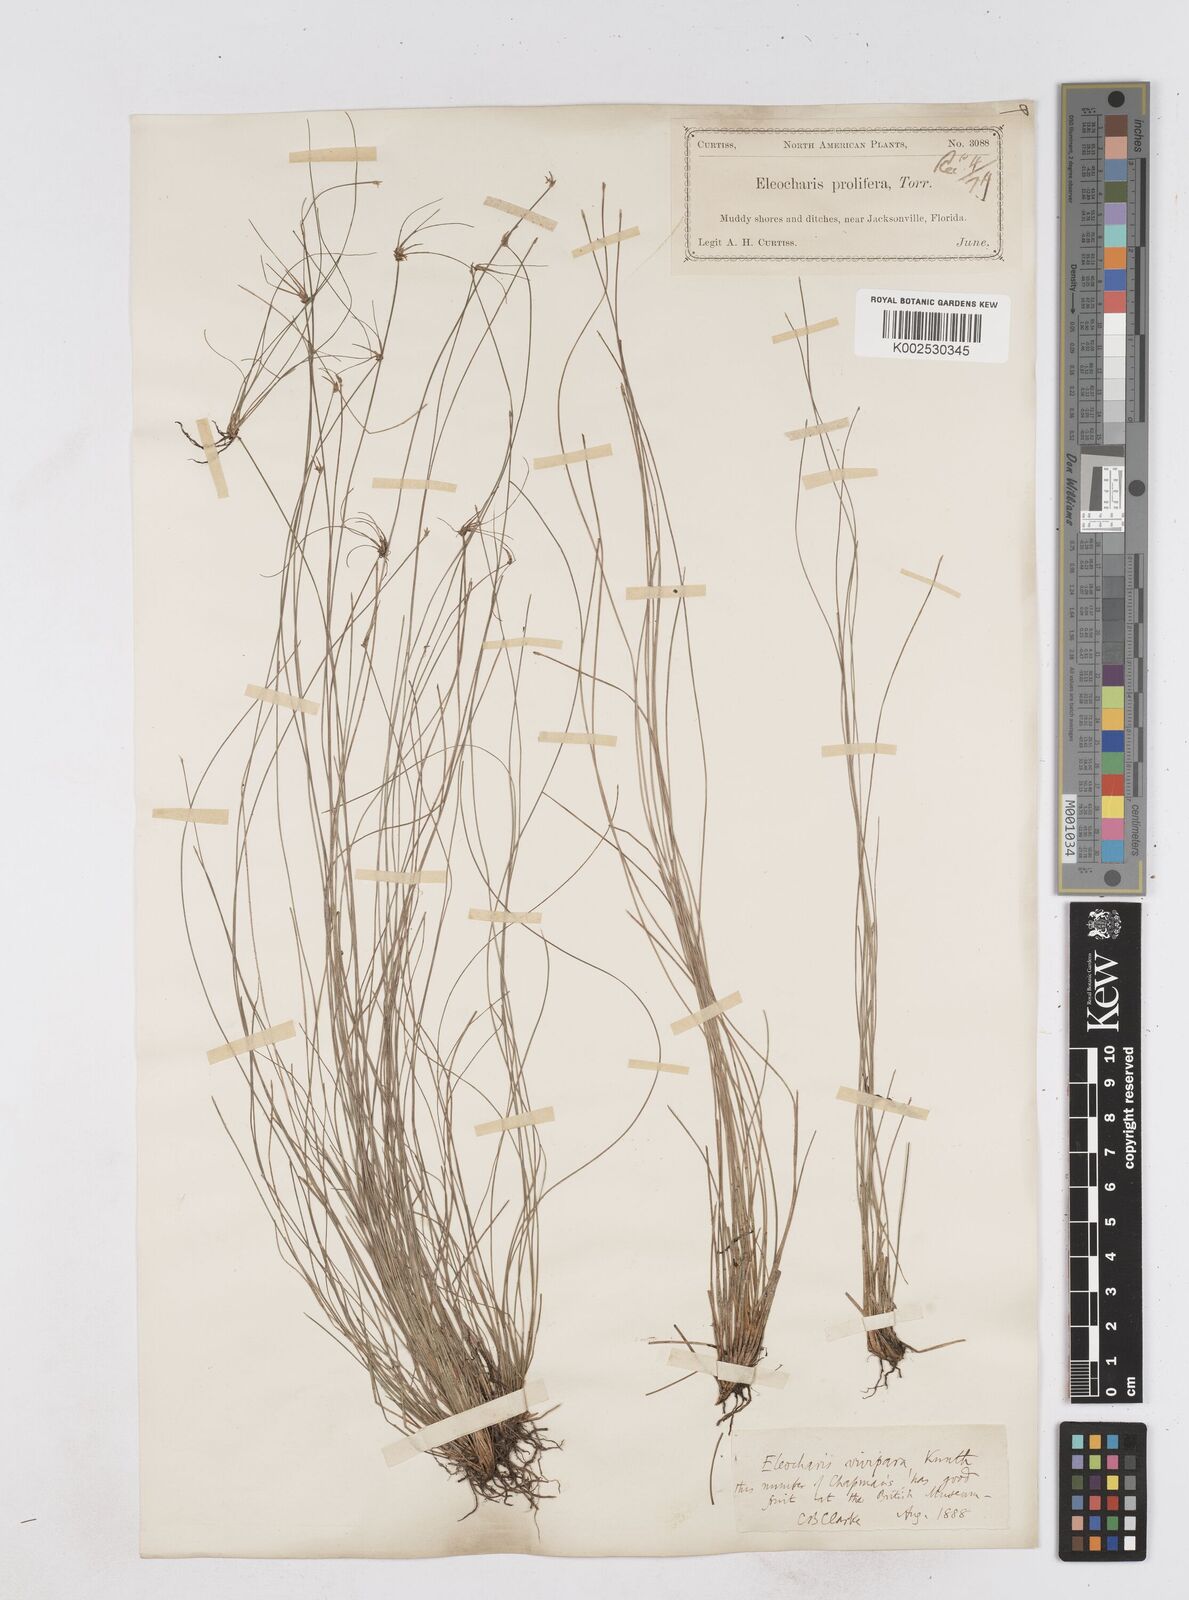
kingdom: Plantae
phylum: Tracheophyta
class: Liliopsida
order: Poales
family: Cyperaceae
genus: Eleocharis
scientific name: Eleocharis
